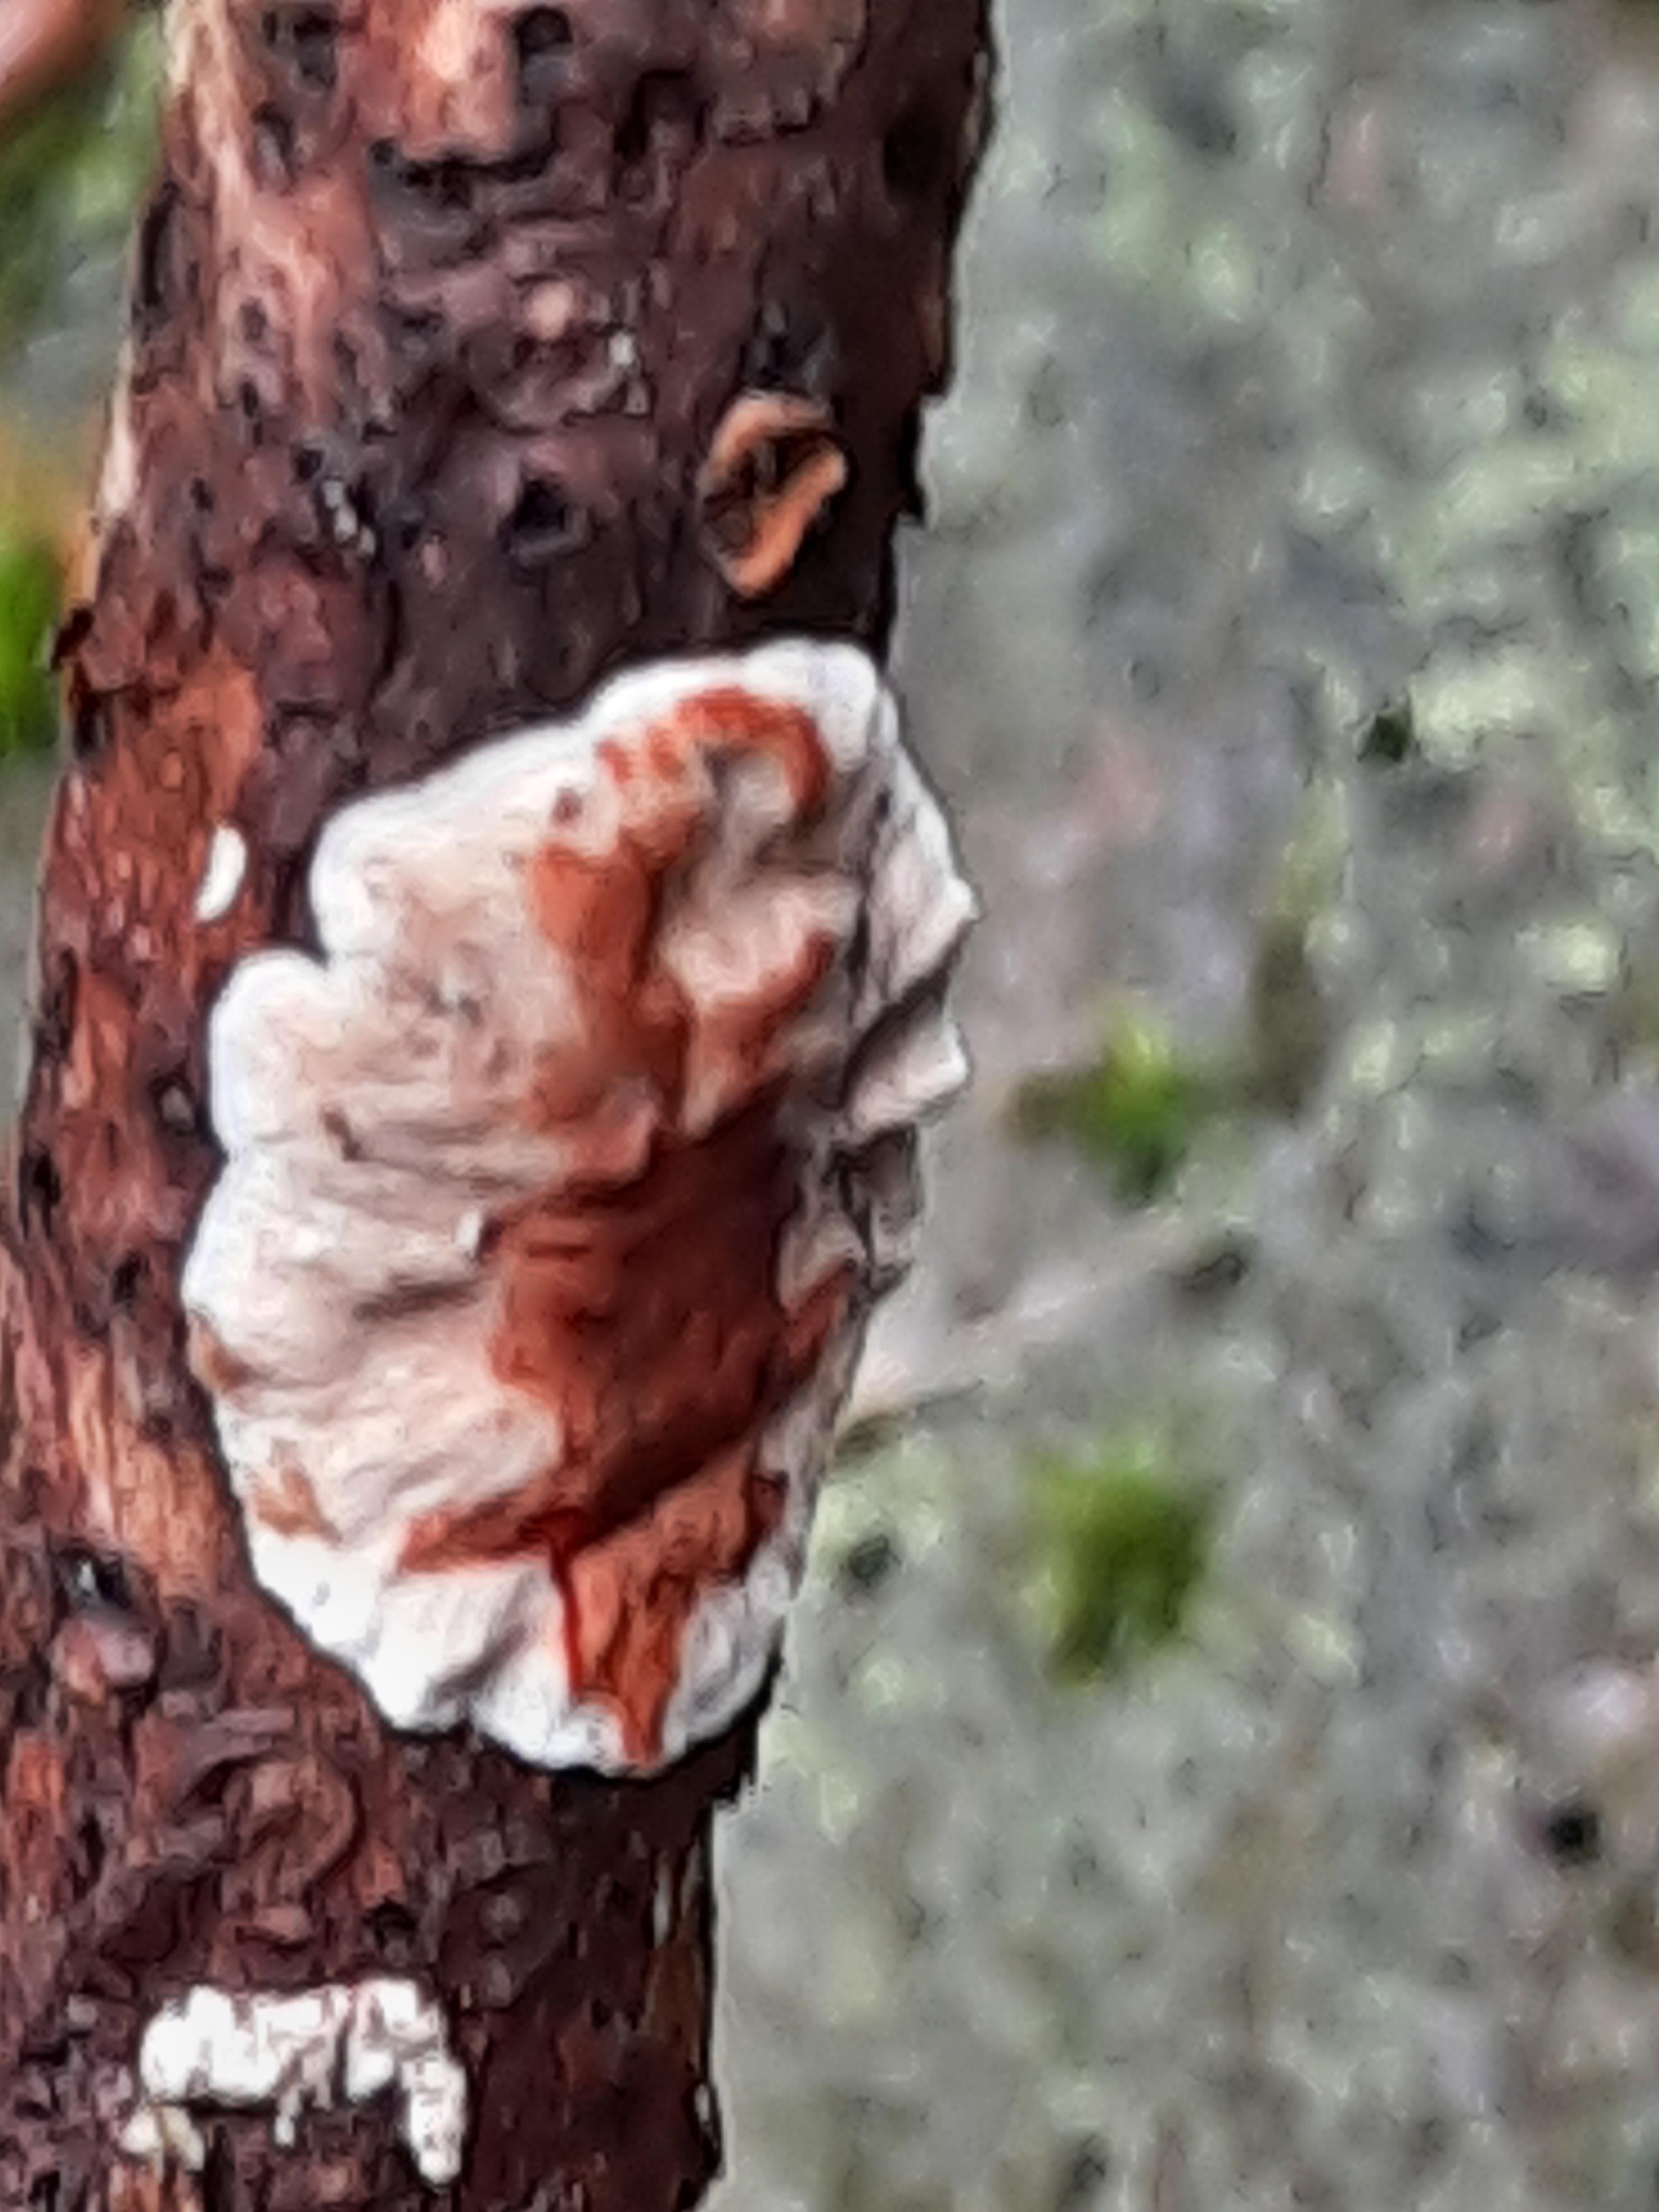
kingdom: Fungi
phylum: Basidiomycota
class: Agaricomycetes
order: Russulales
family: Stereaceae
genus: Stereum
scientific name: Stereum sanguinolentum
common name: blødende lædersvamp
